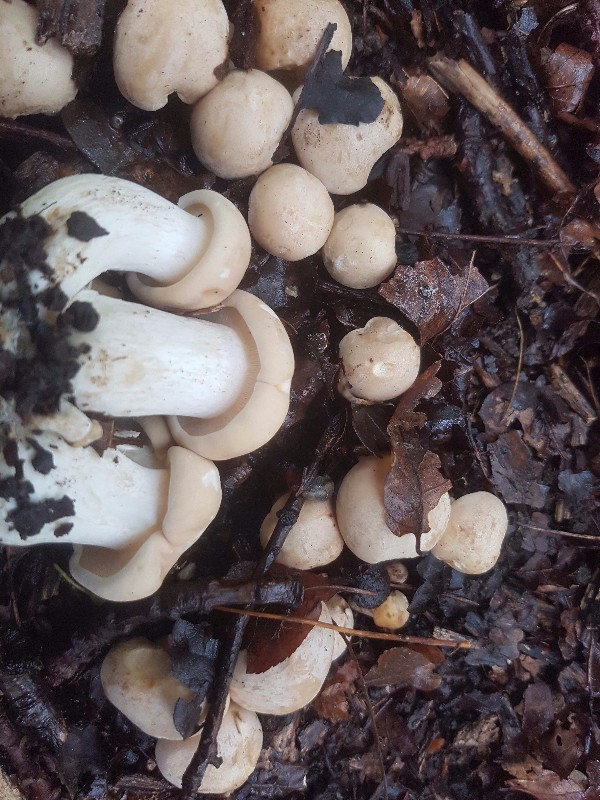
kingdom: Fungi
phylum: Basidiomycota
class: Agaricomycetes
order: Agaricales
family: Lyophyllaceae
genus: Calocybe
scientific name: Calocybe gambosa
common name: vårmusseron
